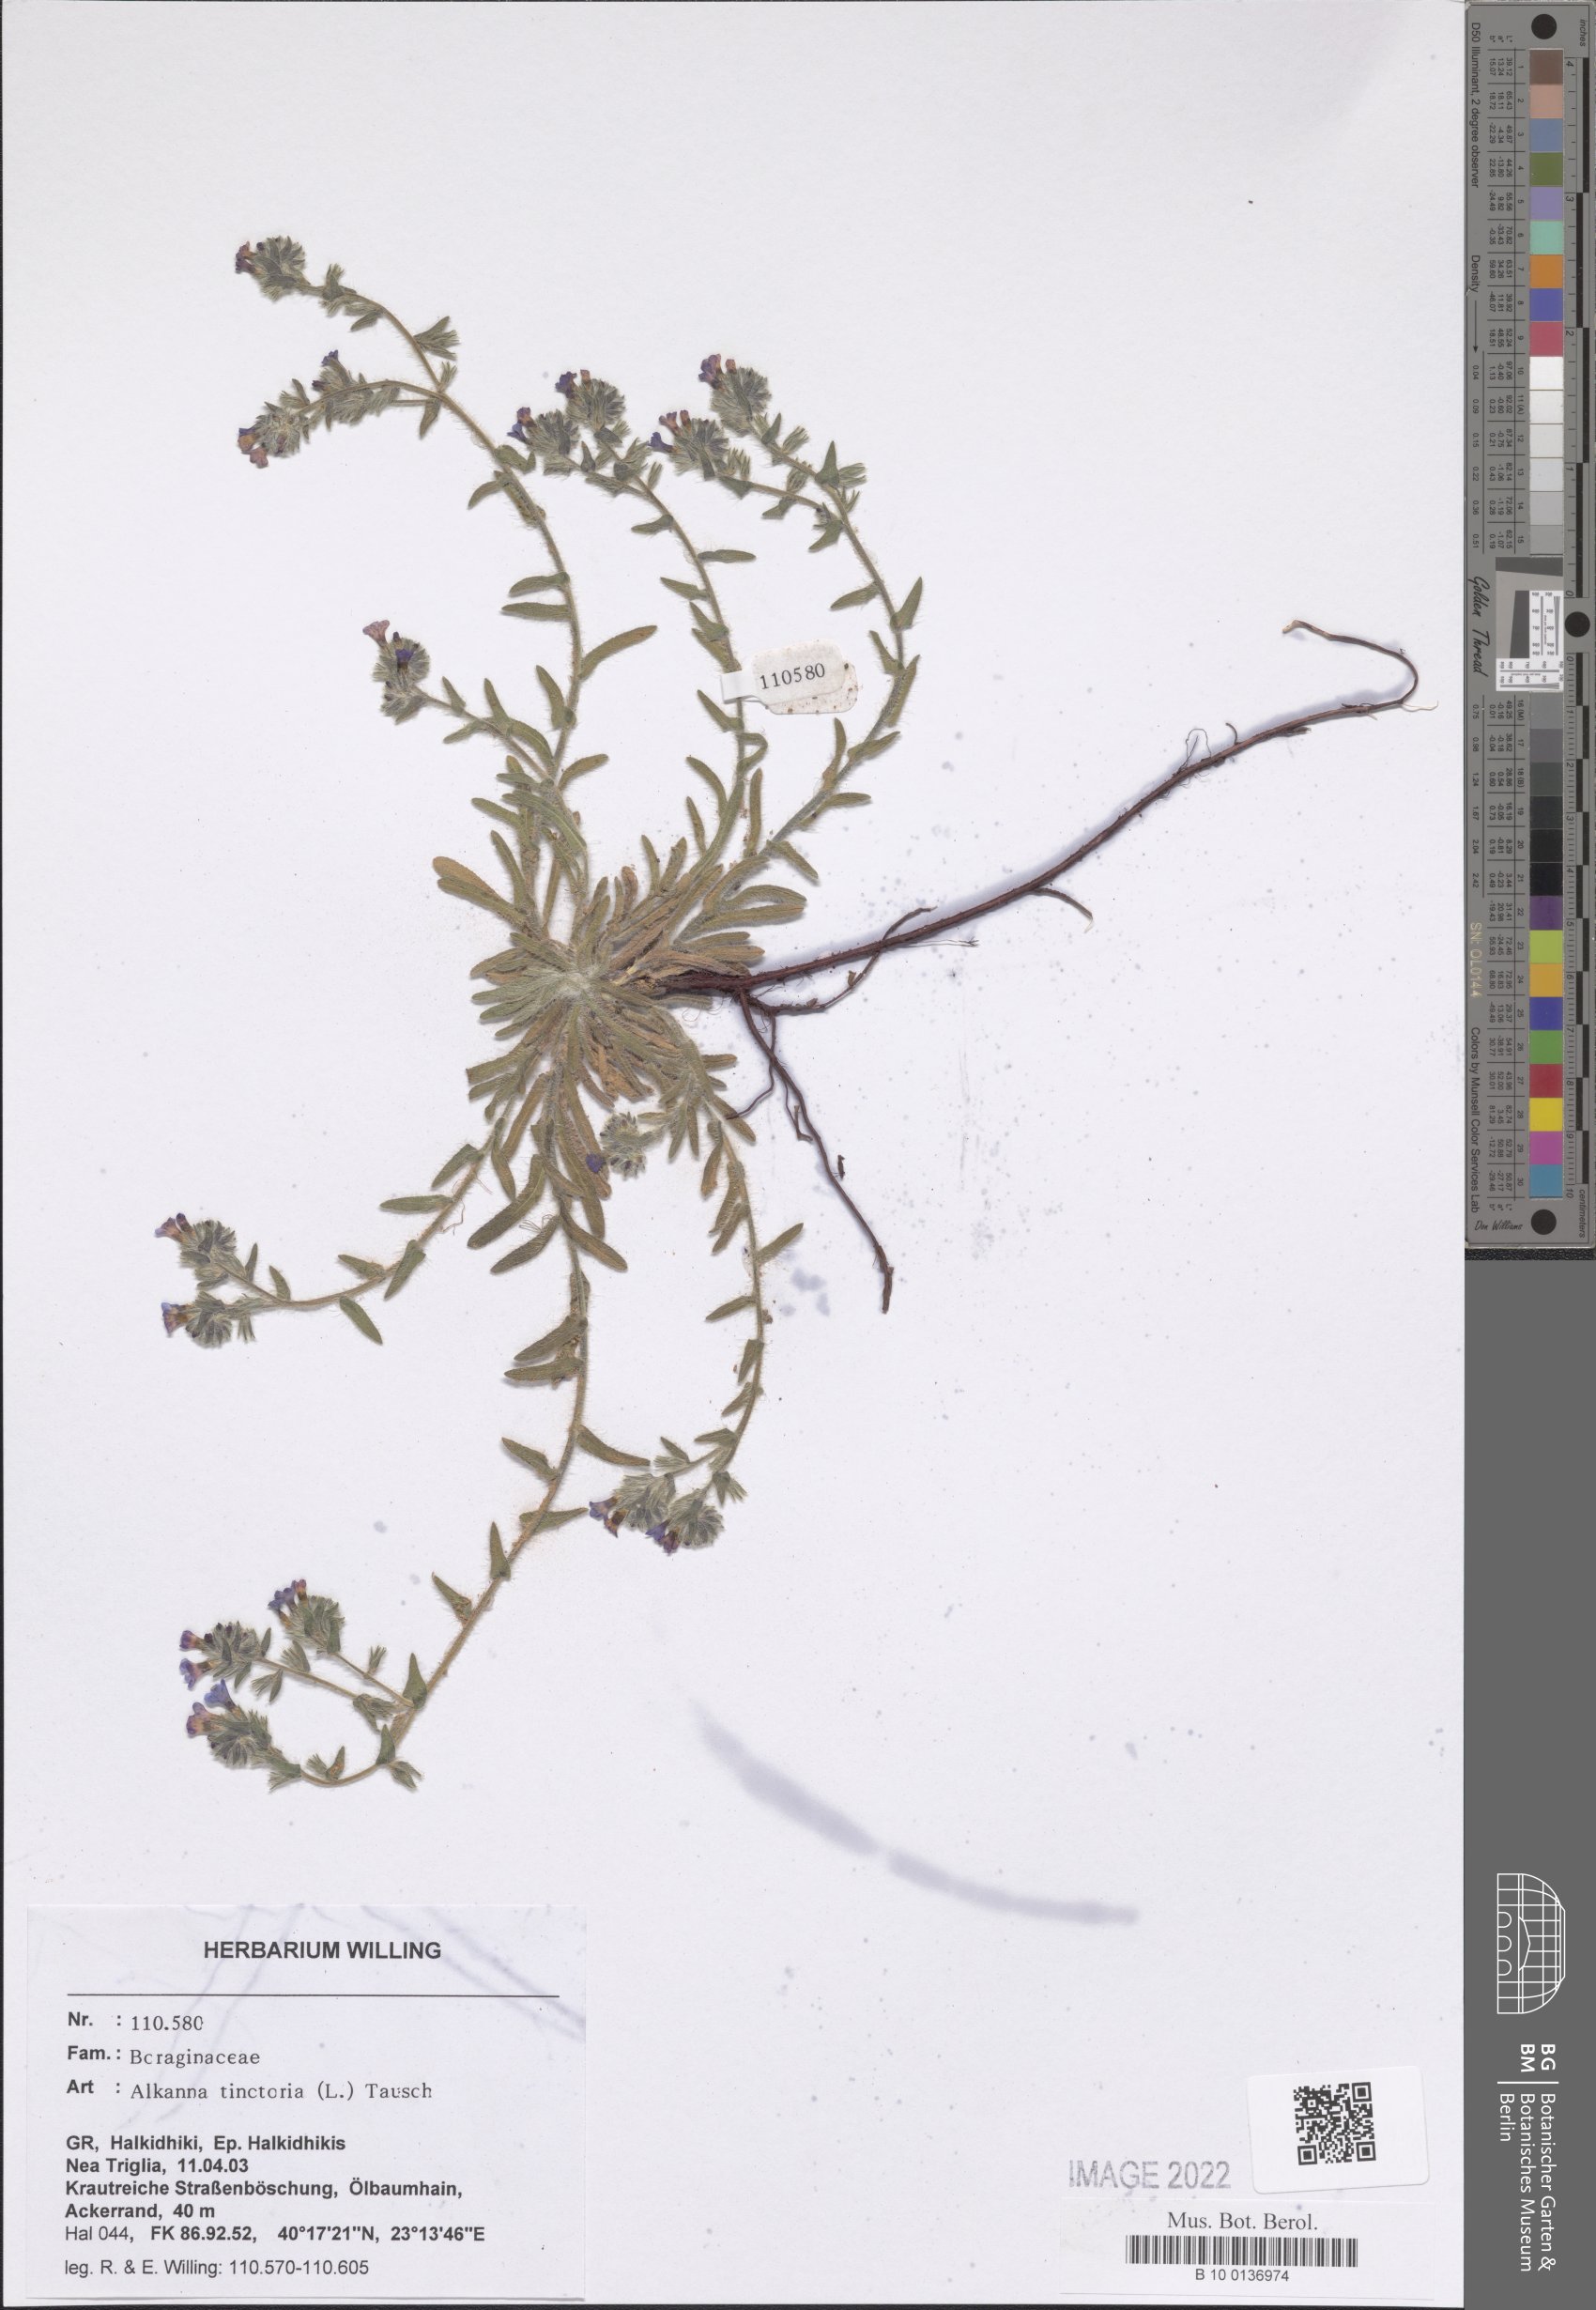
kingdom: Plantae
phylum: Tracheophyta
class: Magnoliopsida
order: Boraginales
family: Boraginaceae
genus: Alkanna
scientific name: Alkanna tinctoria
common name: Dyer's-alkanet
